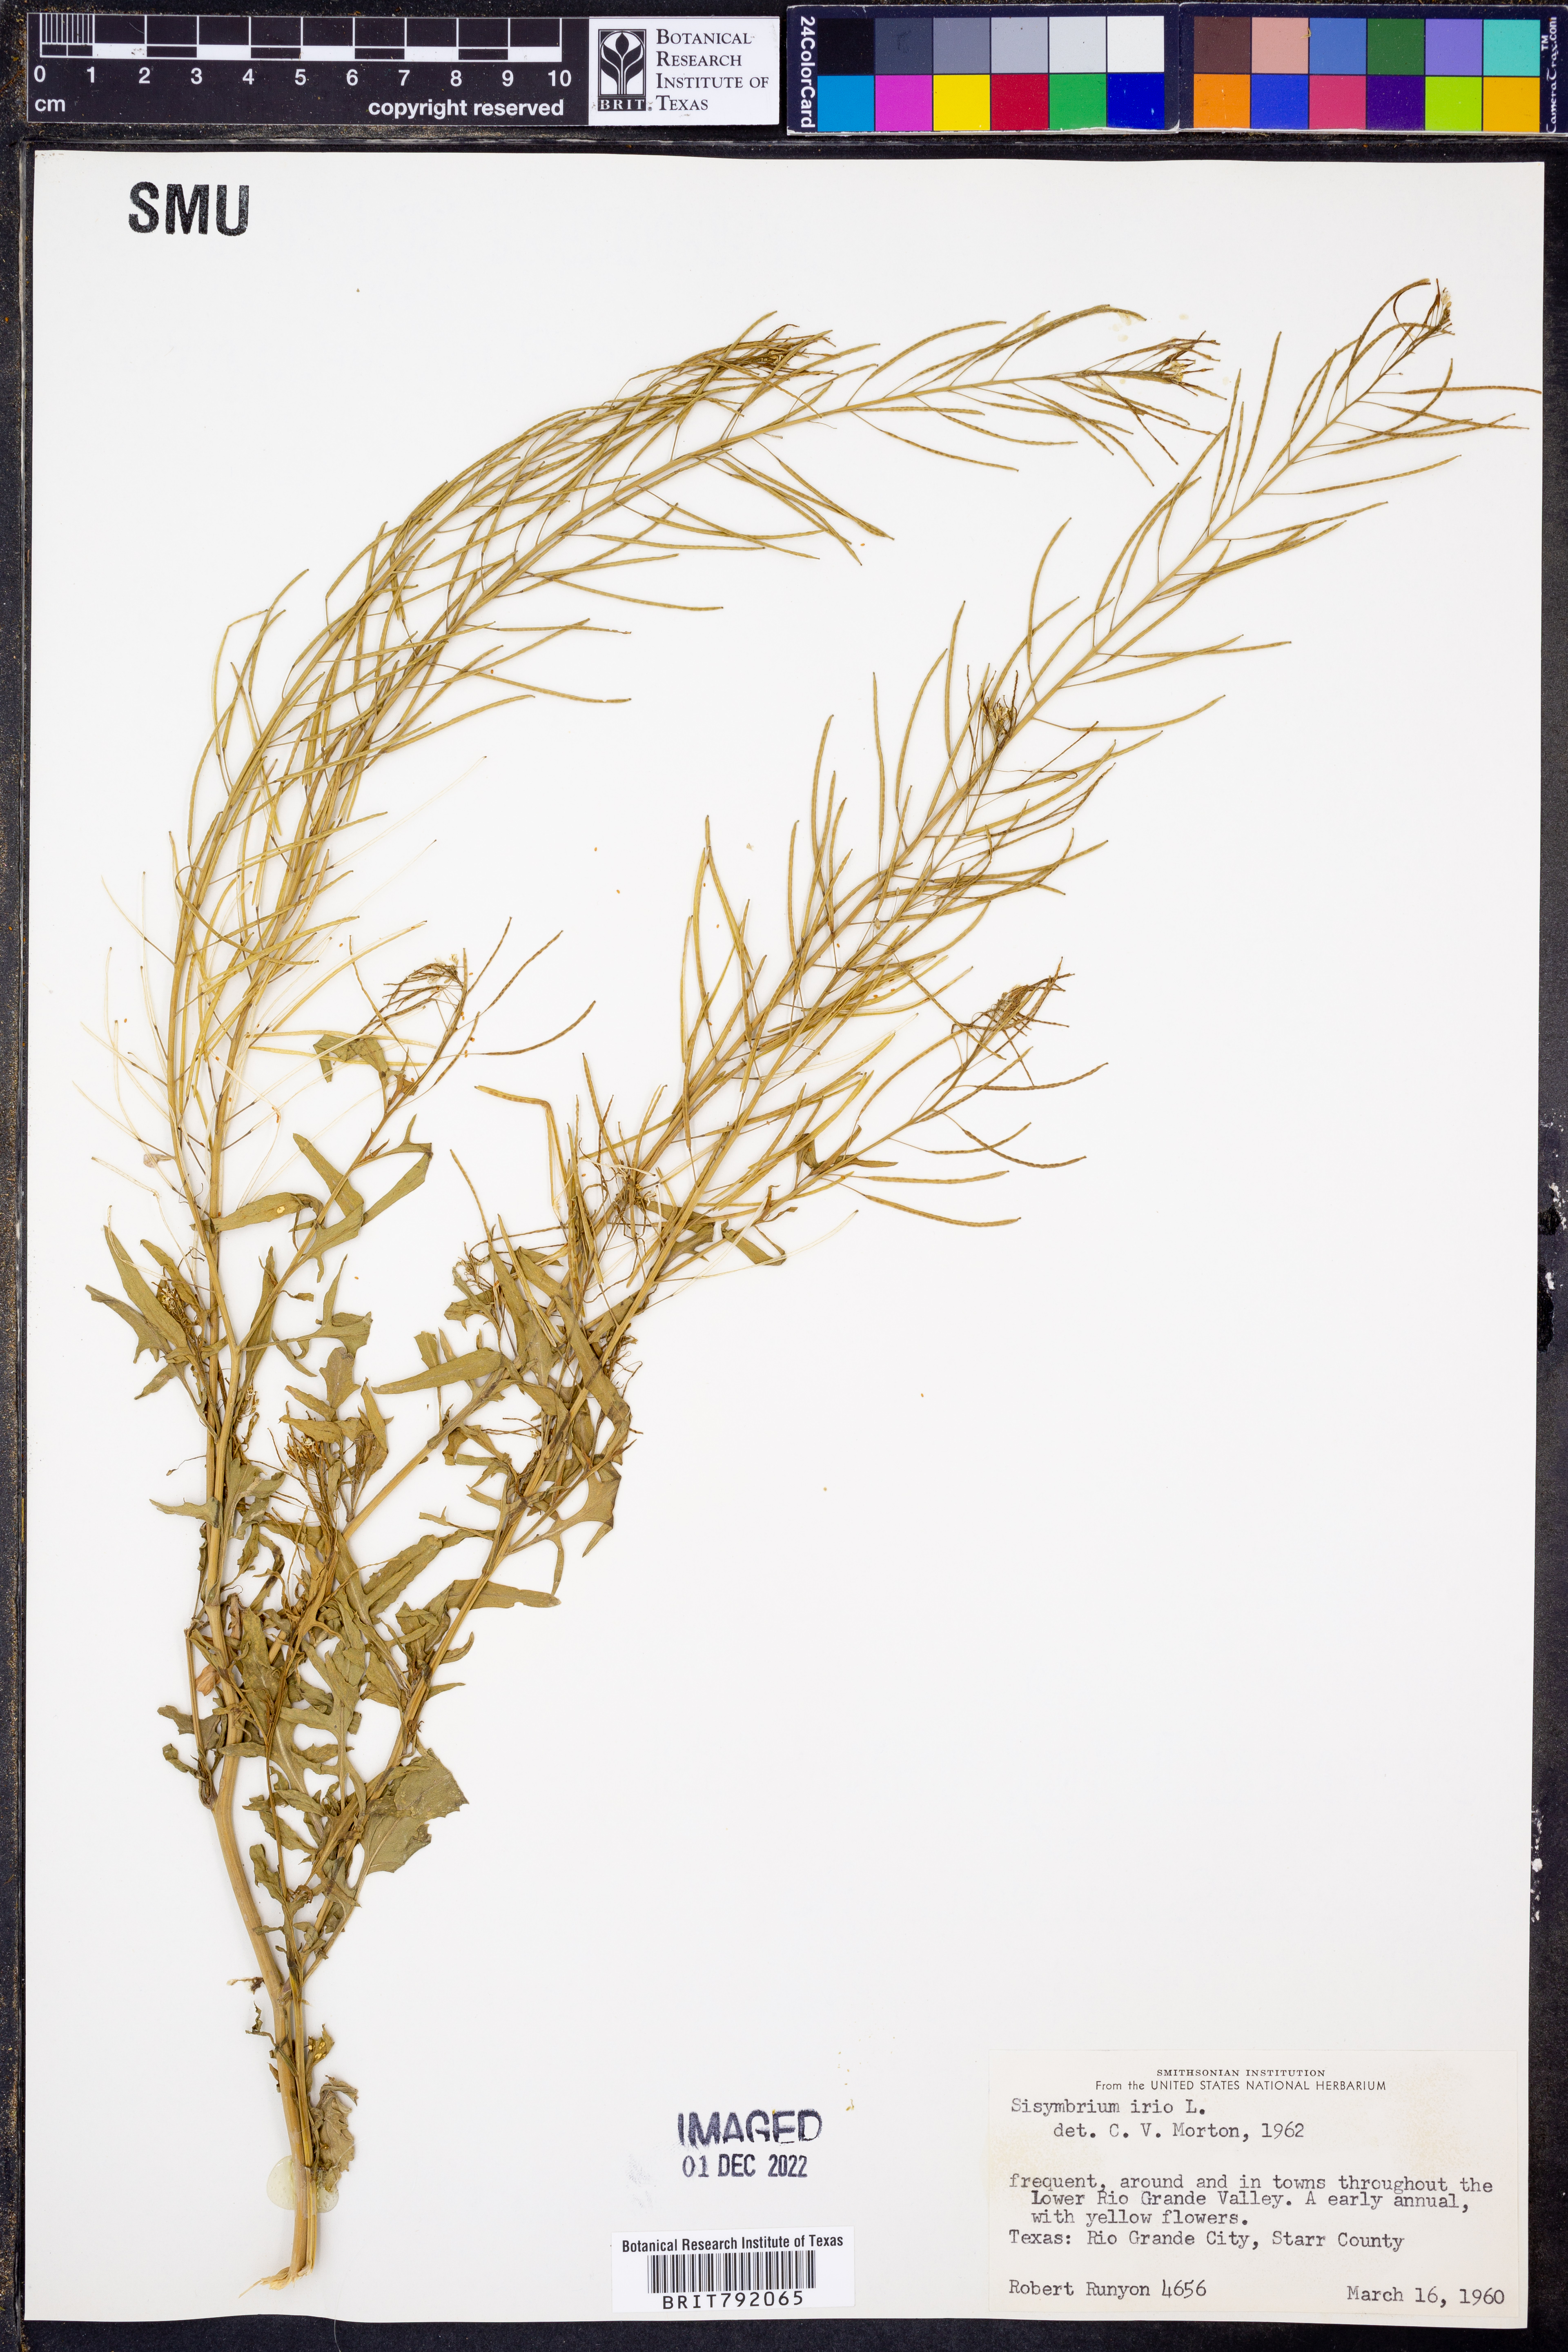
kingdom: Plantae
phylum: Tracheophyta
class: Magnoliopsida
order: Brassicales
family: Brassicaceae
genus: Sisymbrium
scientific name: Sisymbrium irio
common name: London rocket
